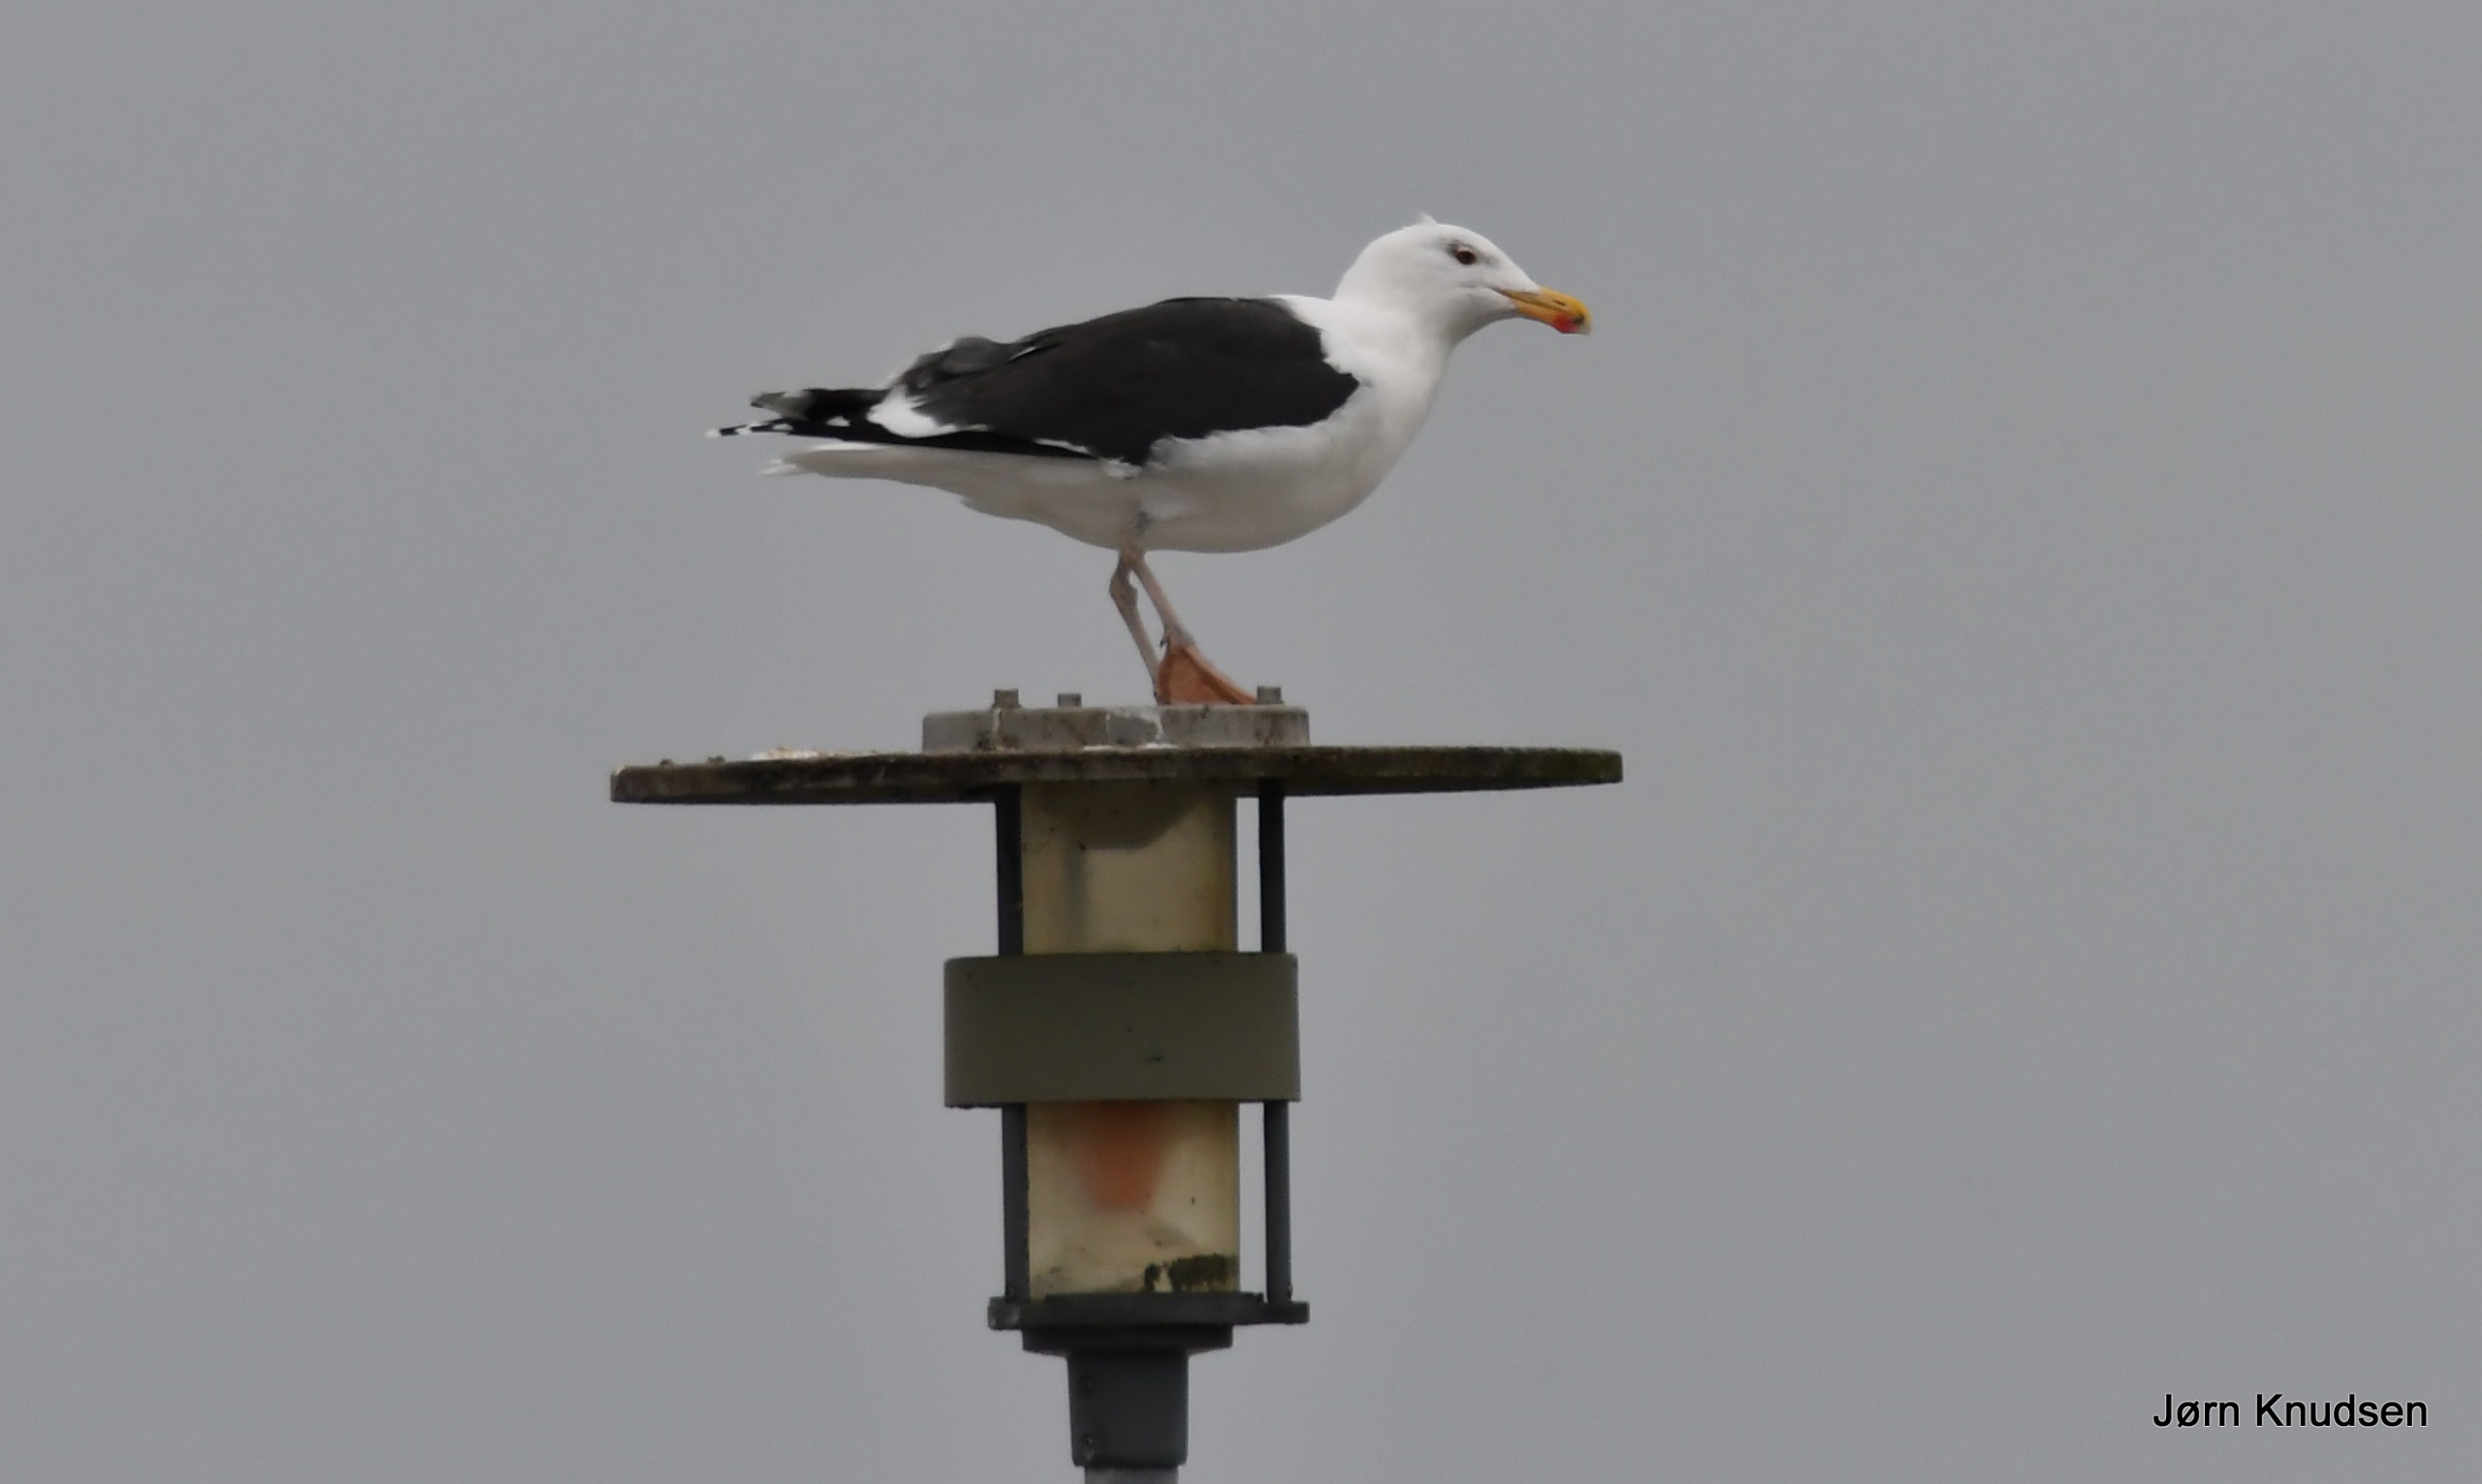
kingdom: Animalia
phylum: Chordata
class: Aves
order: Charadriiformes
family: Laridae
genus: Larus
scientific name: Larus marinus
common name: Svartbag
